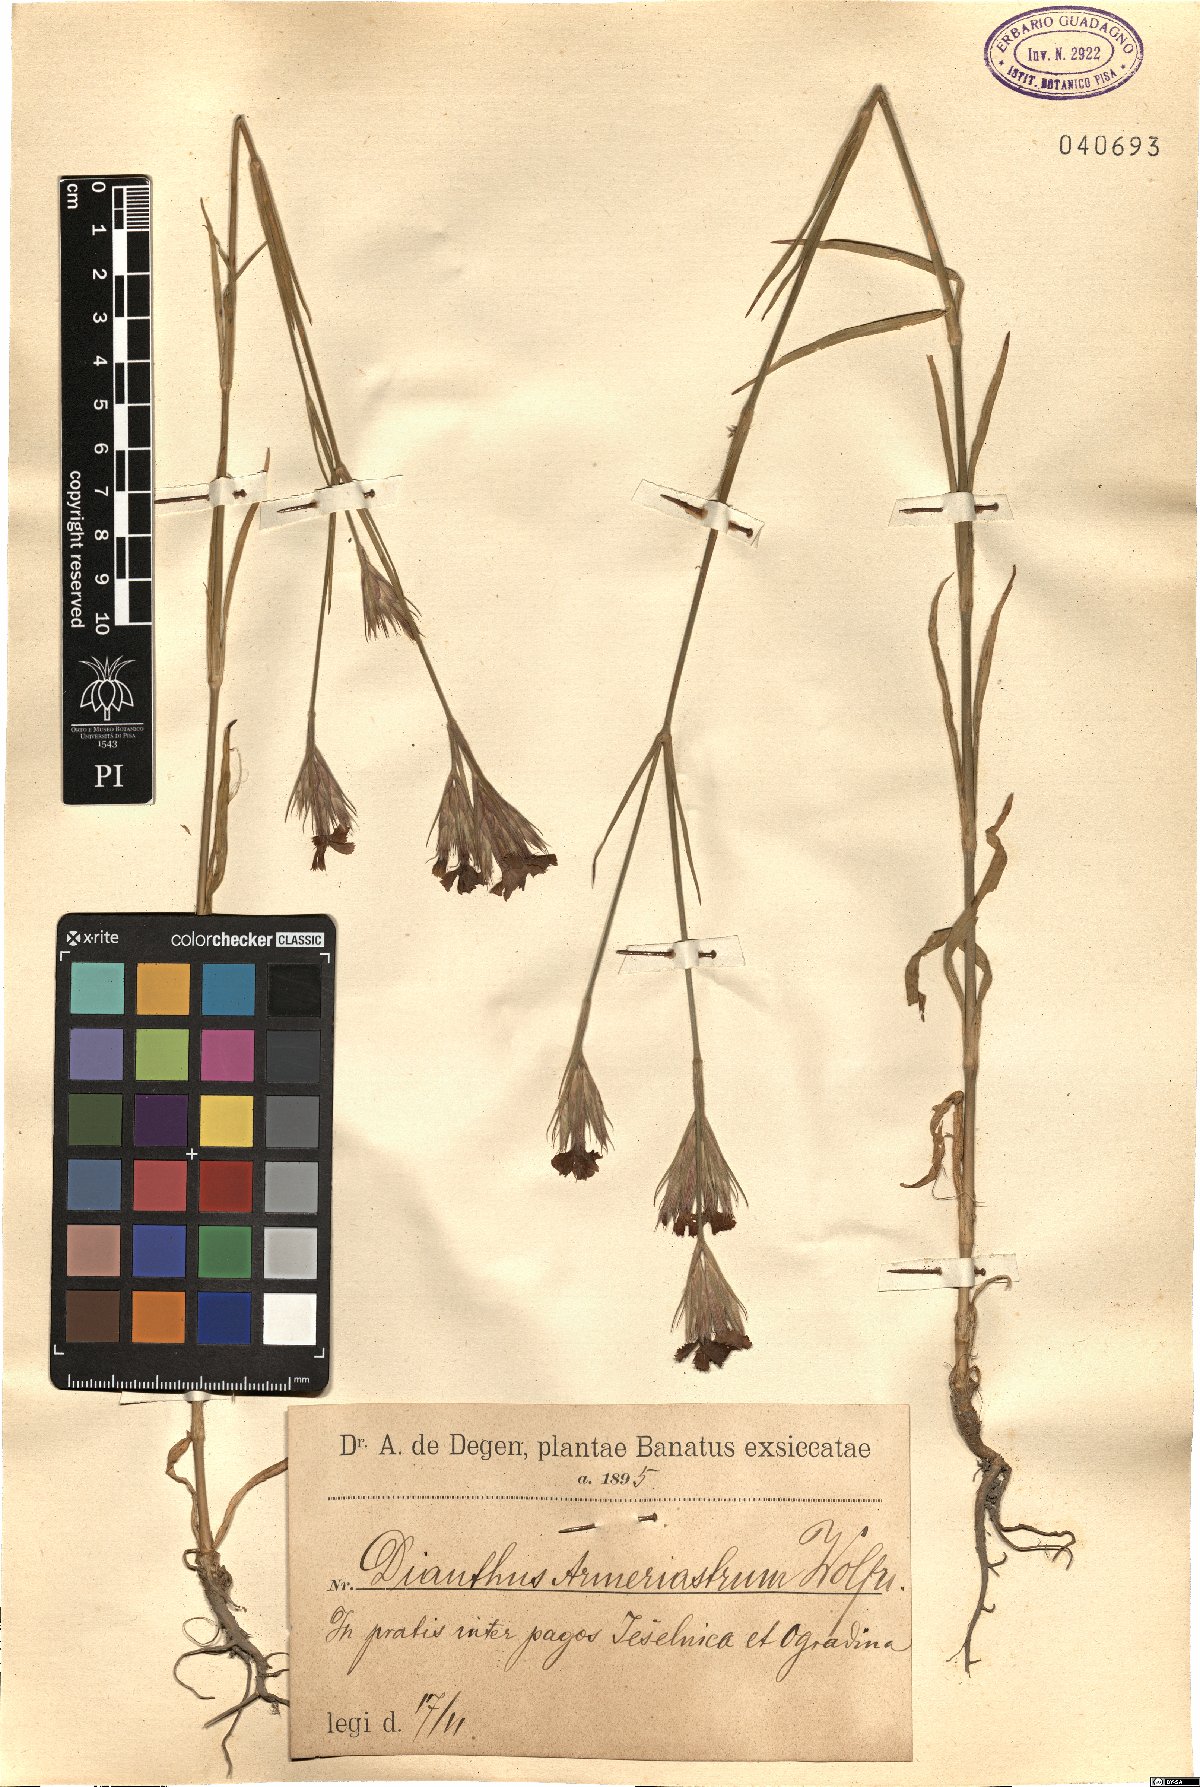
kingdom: Plantae
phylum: Tracheophyta
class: Magnoliopsida
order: Caryophyllales
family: Caryophyllaceae
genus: Dianthus
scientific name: Dianthus corymbosus
